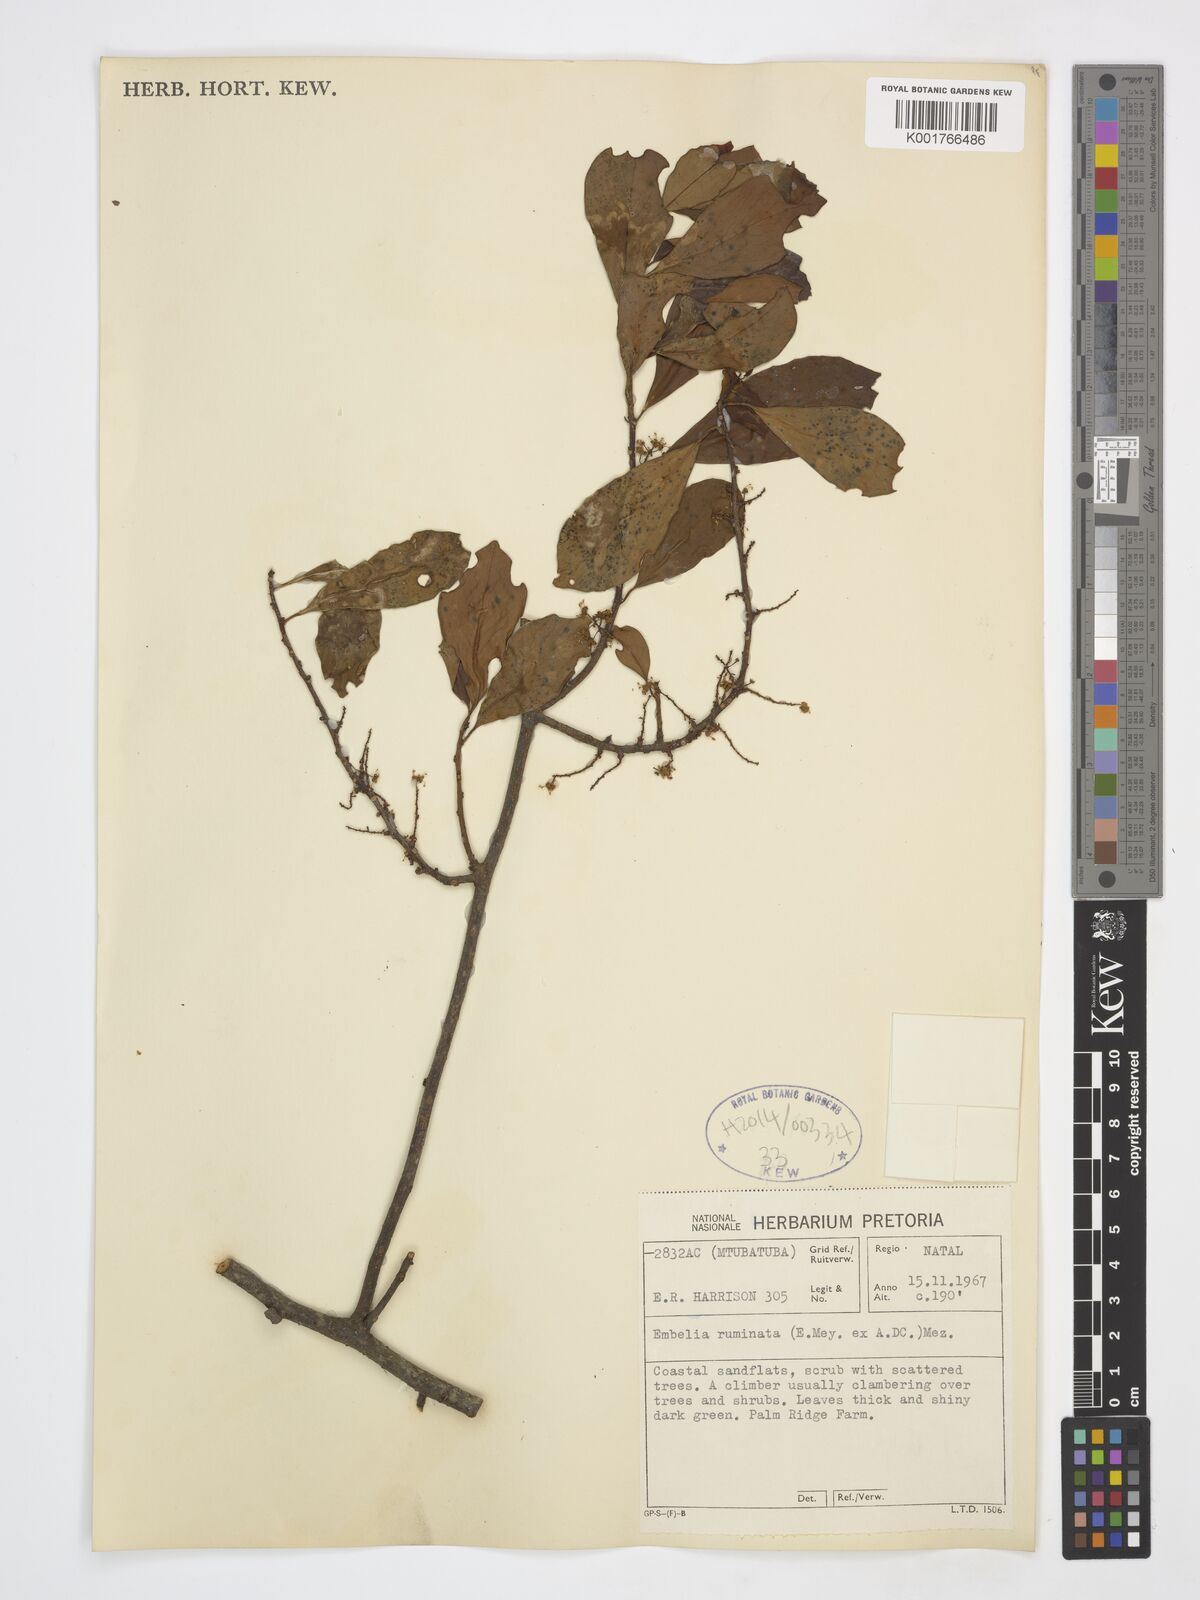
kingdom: Plantae
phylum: Tracheophyta
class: Magnoliopsida
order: Ericales
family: Primulaceae
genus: Embelia
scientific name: Embelia ruminata
